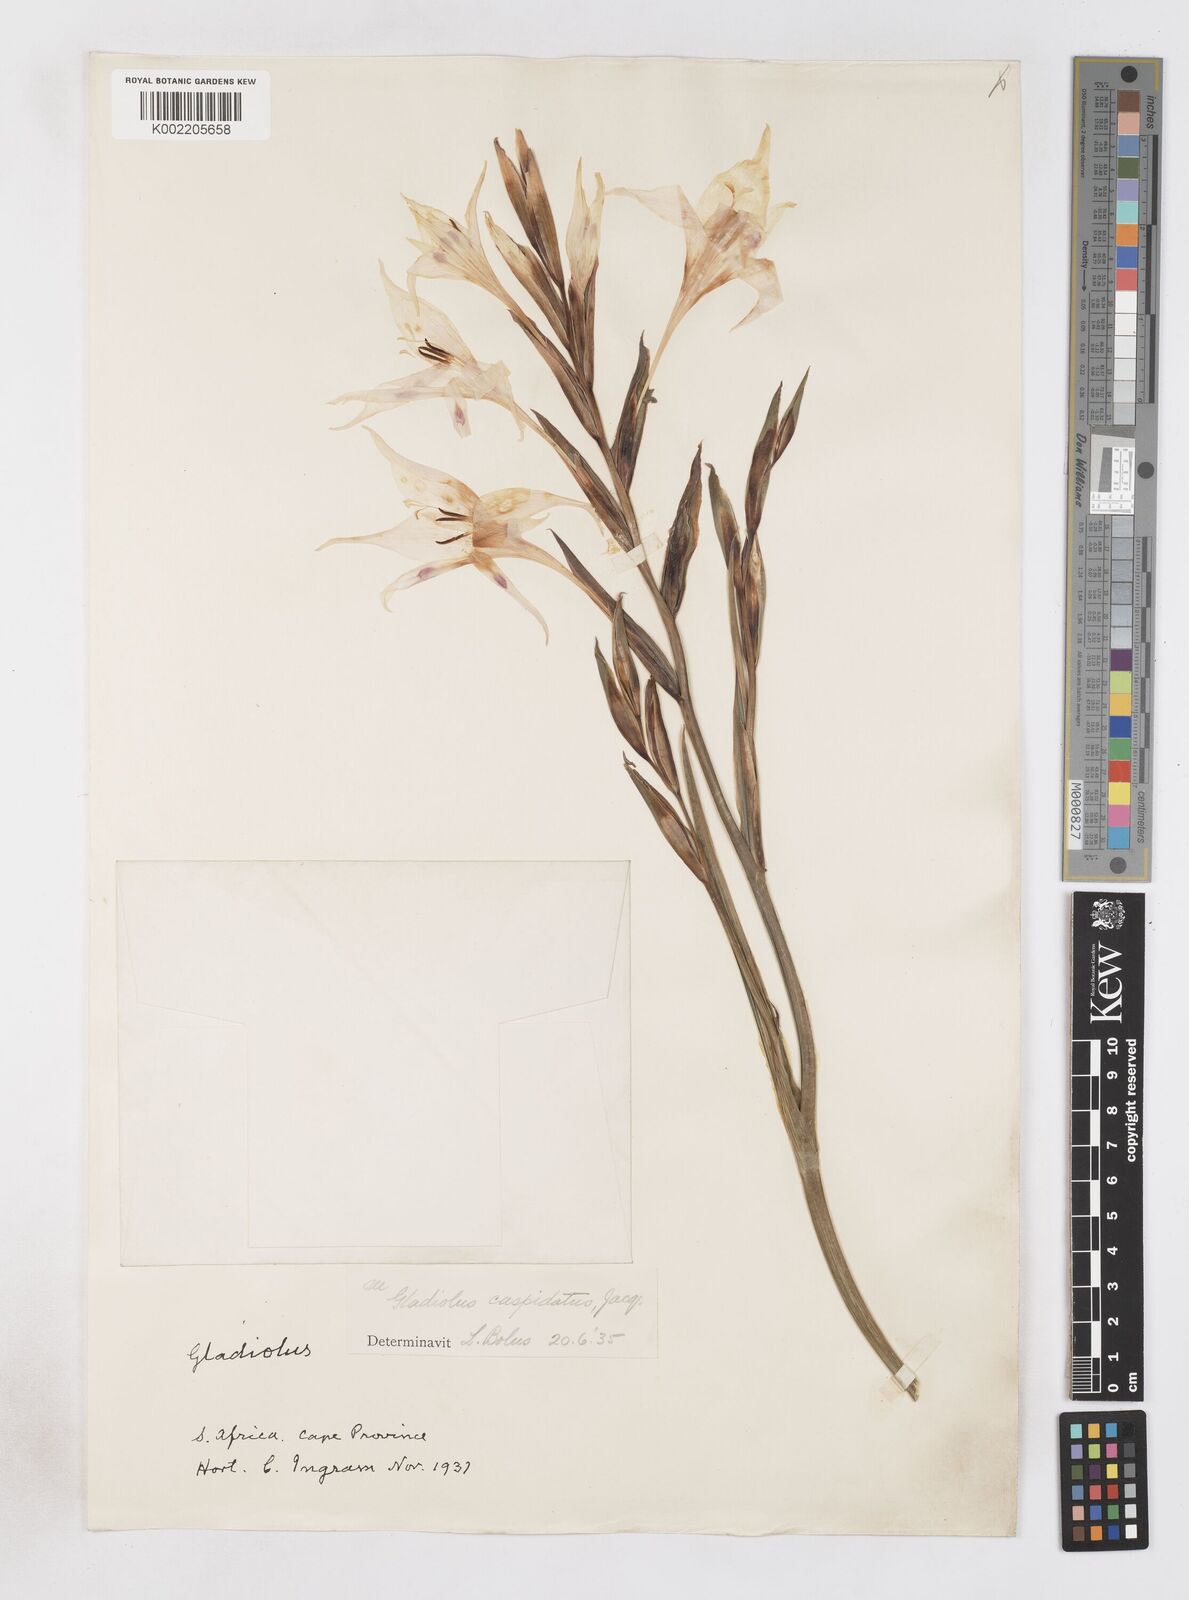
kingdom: Plantae
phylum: Tracheophyta
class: Liliopsida
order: Asparagales
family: Iridaceae
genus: Gladiolus
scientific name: Gladiolus undulatus
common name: Large painted-lady
